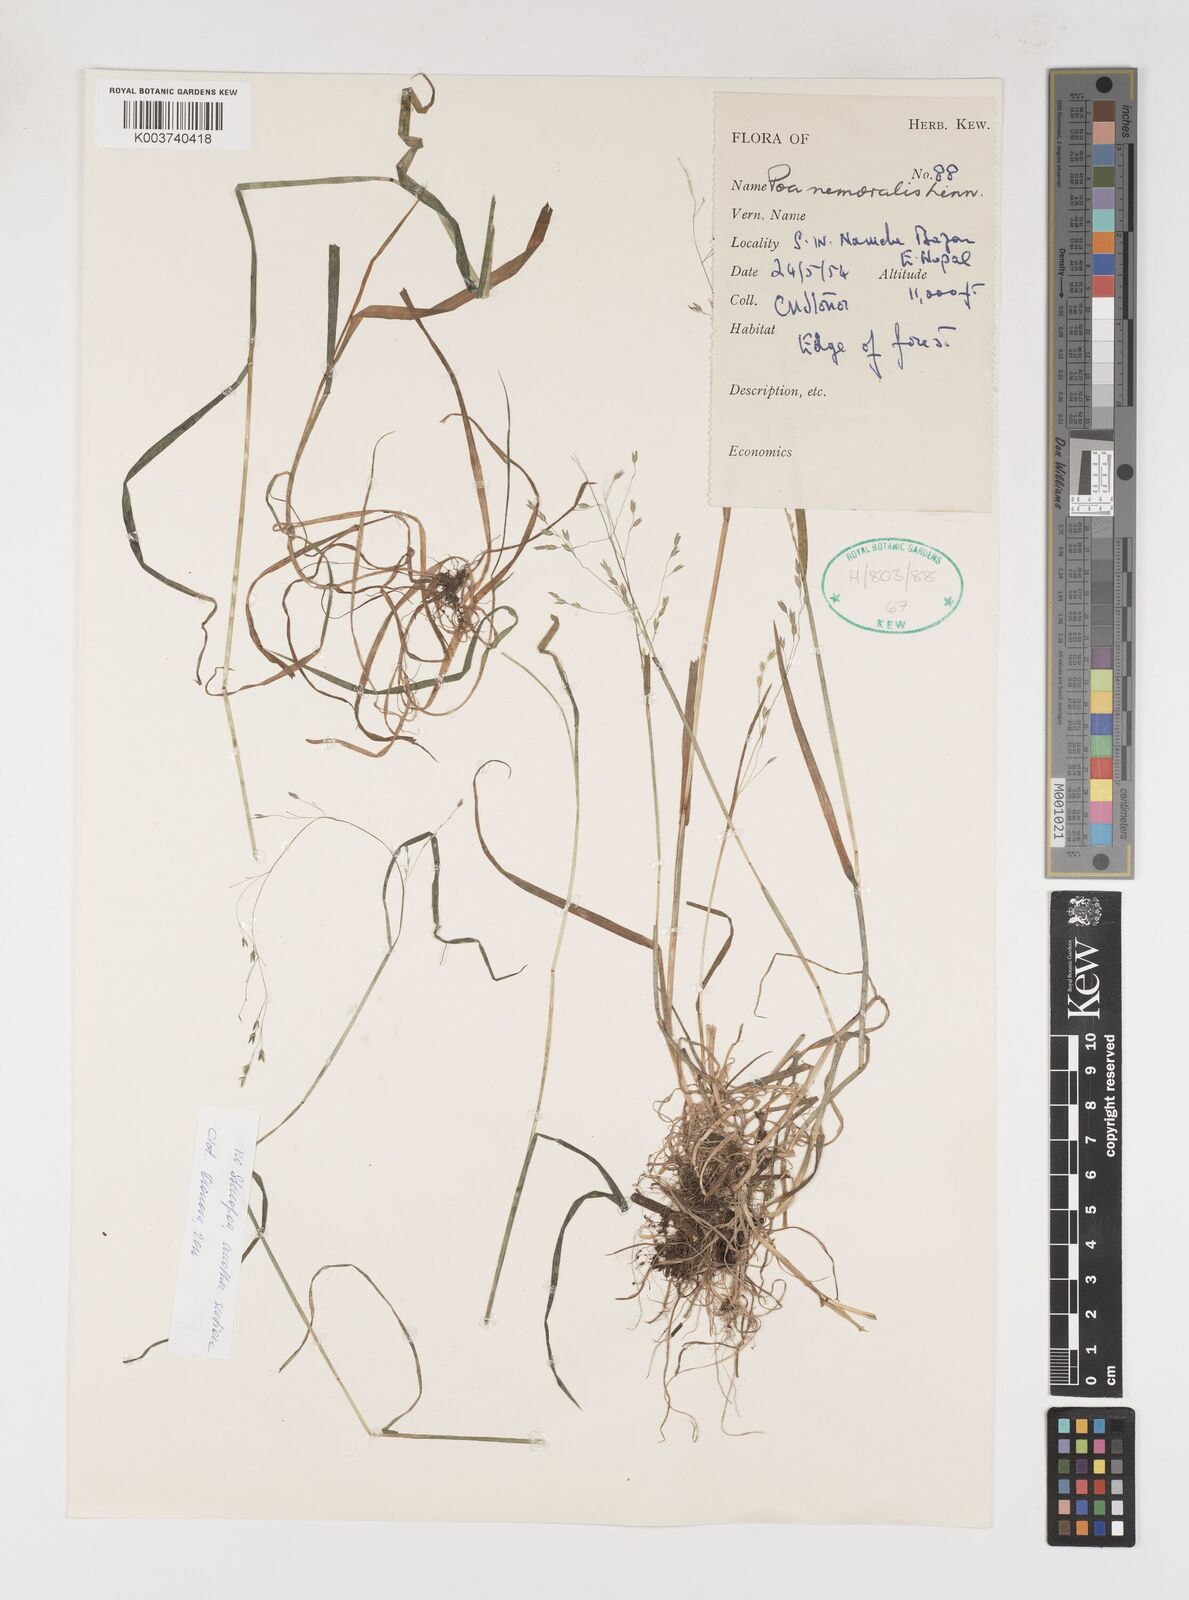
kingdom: Plantae
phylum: Tracheophyta
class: Liliopsida
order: Poales
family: Poaceae
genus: Poa
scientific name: Poa nemoralis
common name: Wood bluegrass
